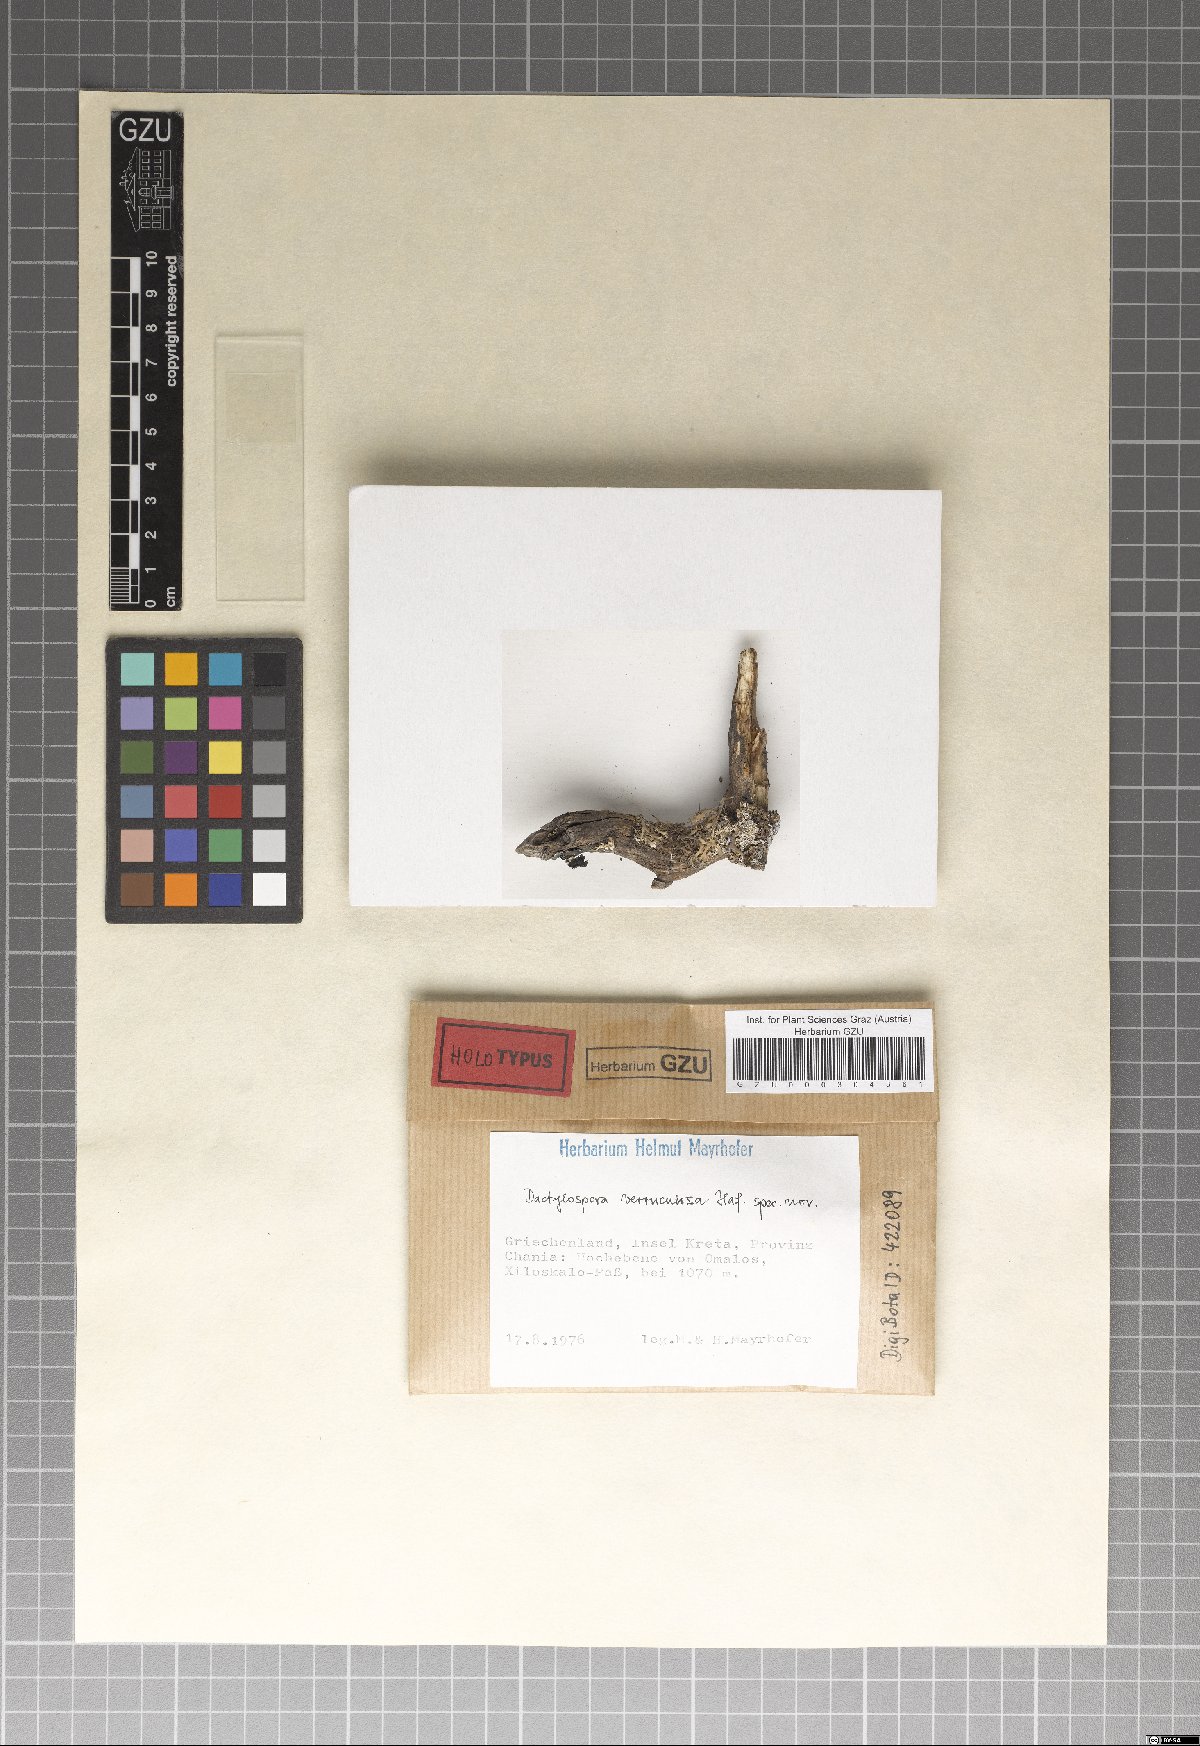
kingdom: Fungi
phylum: Ascomycota
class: Eurotiomycetes
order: Sclerococcales
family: Sclerococcaceae
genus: Sclerococcum
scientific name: Sclerococcum verruculosum
